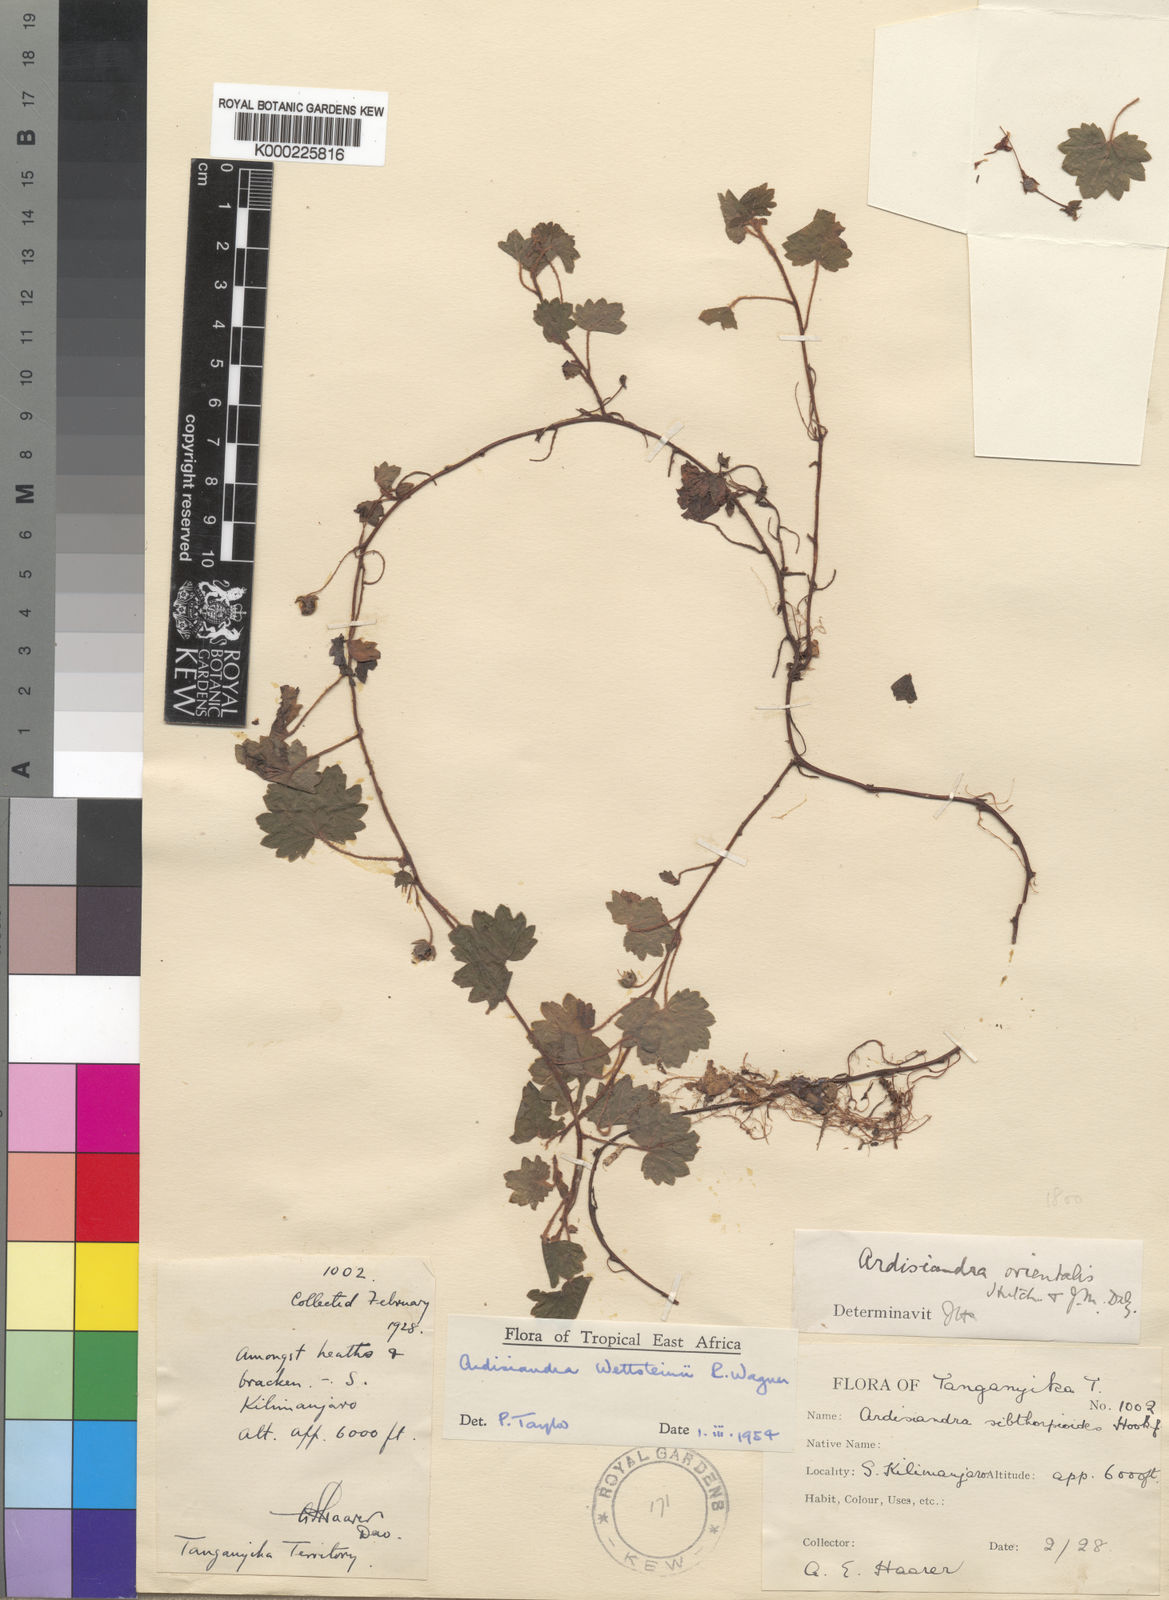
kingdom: Plantae
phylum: Tracheophyta
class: Magnoliopsida
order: Ericales
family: Primulaceae
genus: Ardisiandra
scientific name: Ardisiandra wettsteinii
